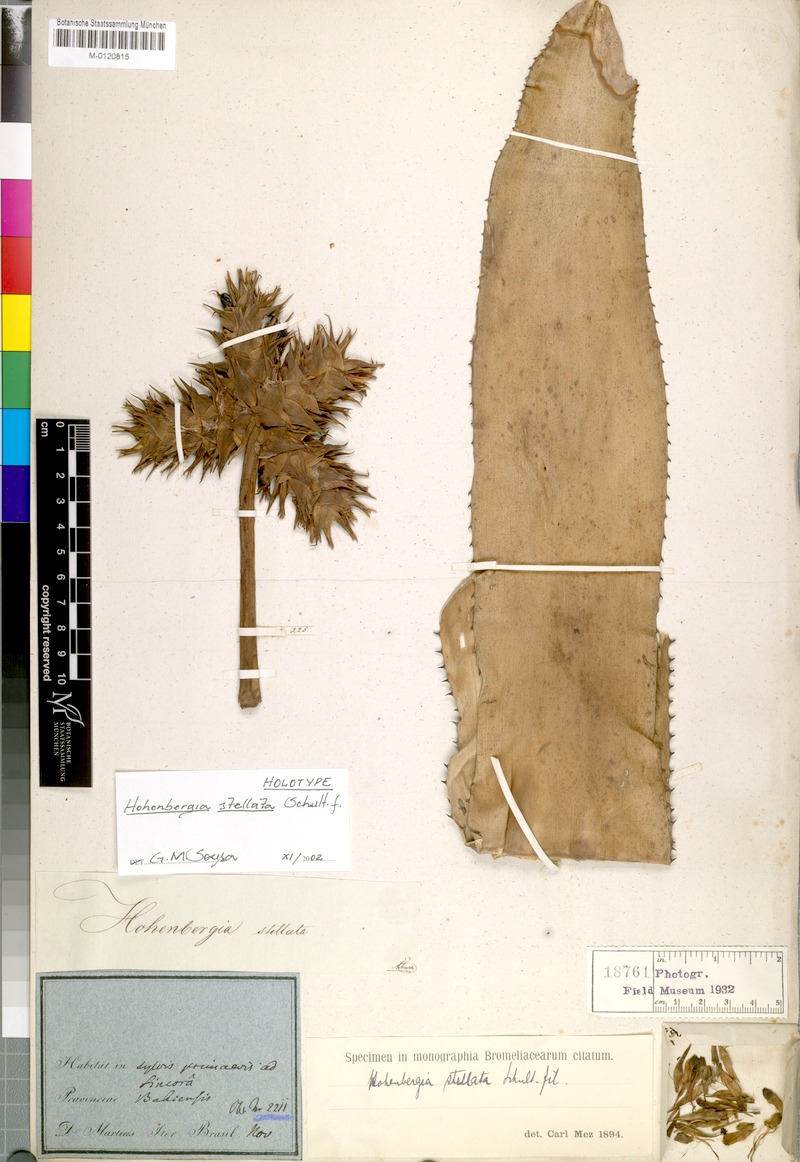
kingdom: Plantae
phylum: Tracheophyta
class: Liliopsida
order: Poales
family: Bromeliaceae
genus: Hohenbergia
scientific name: Hohenbergia stellata
